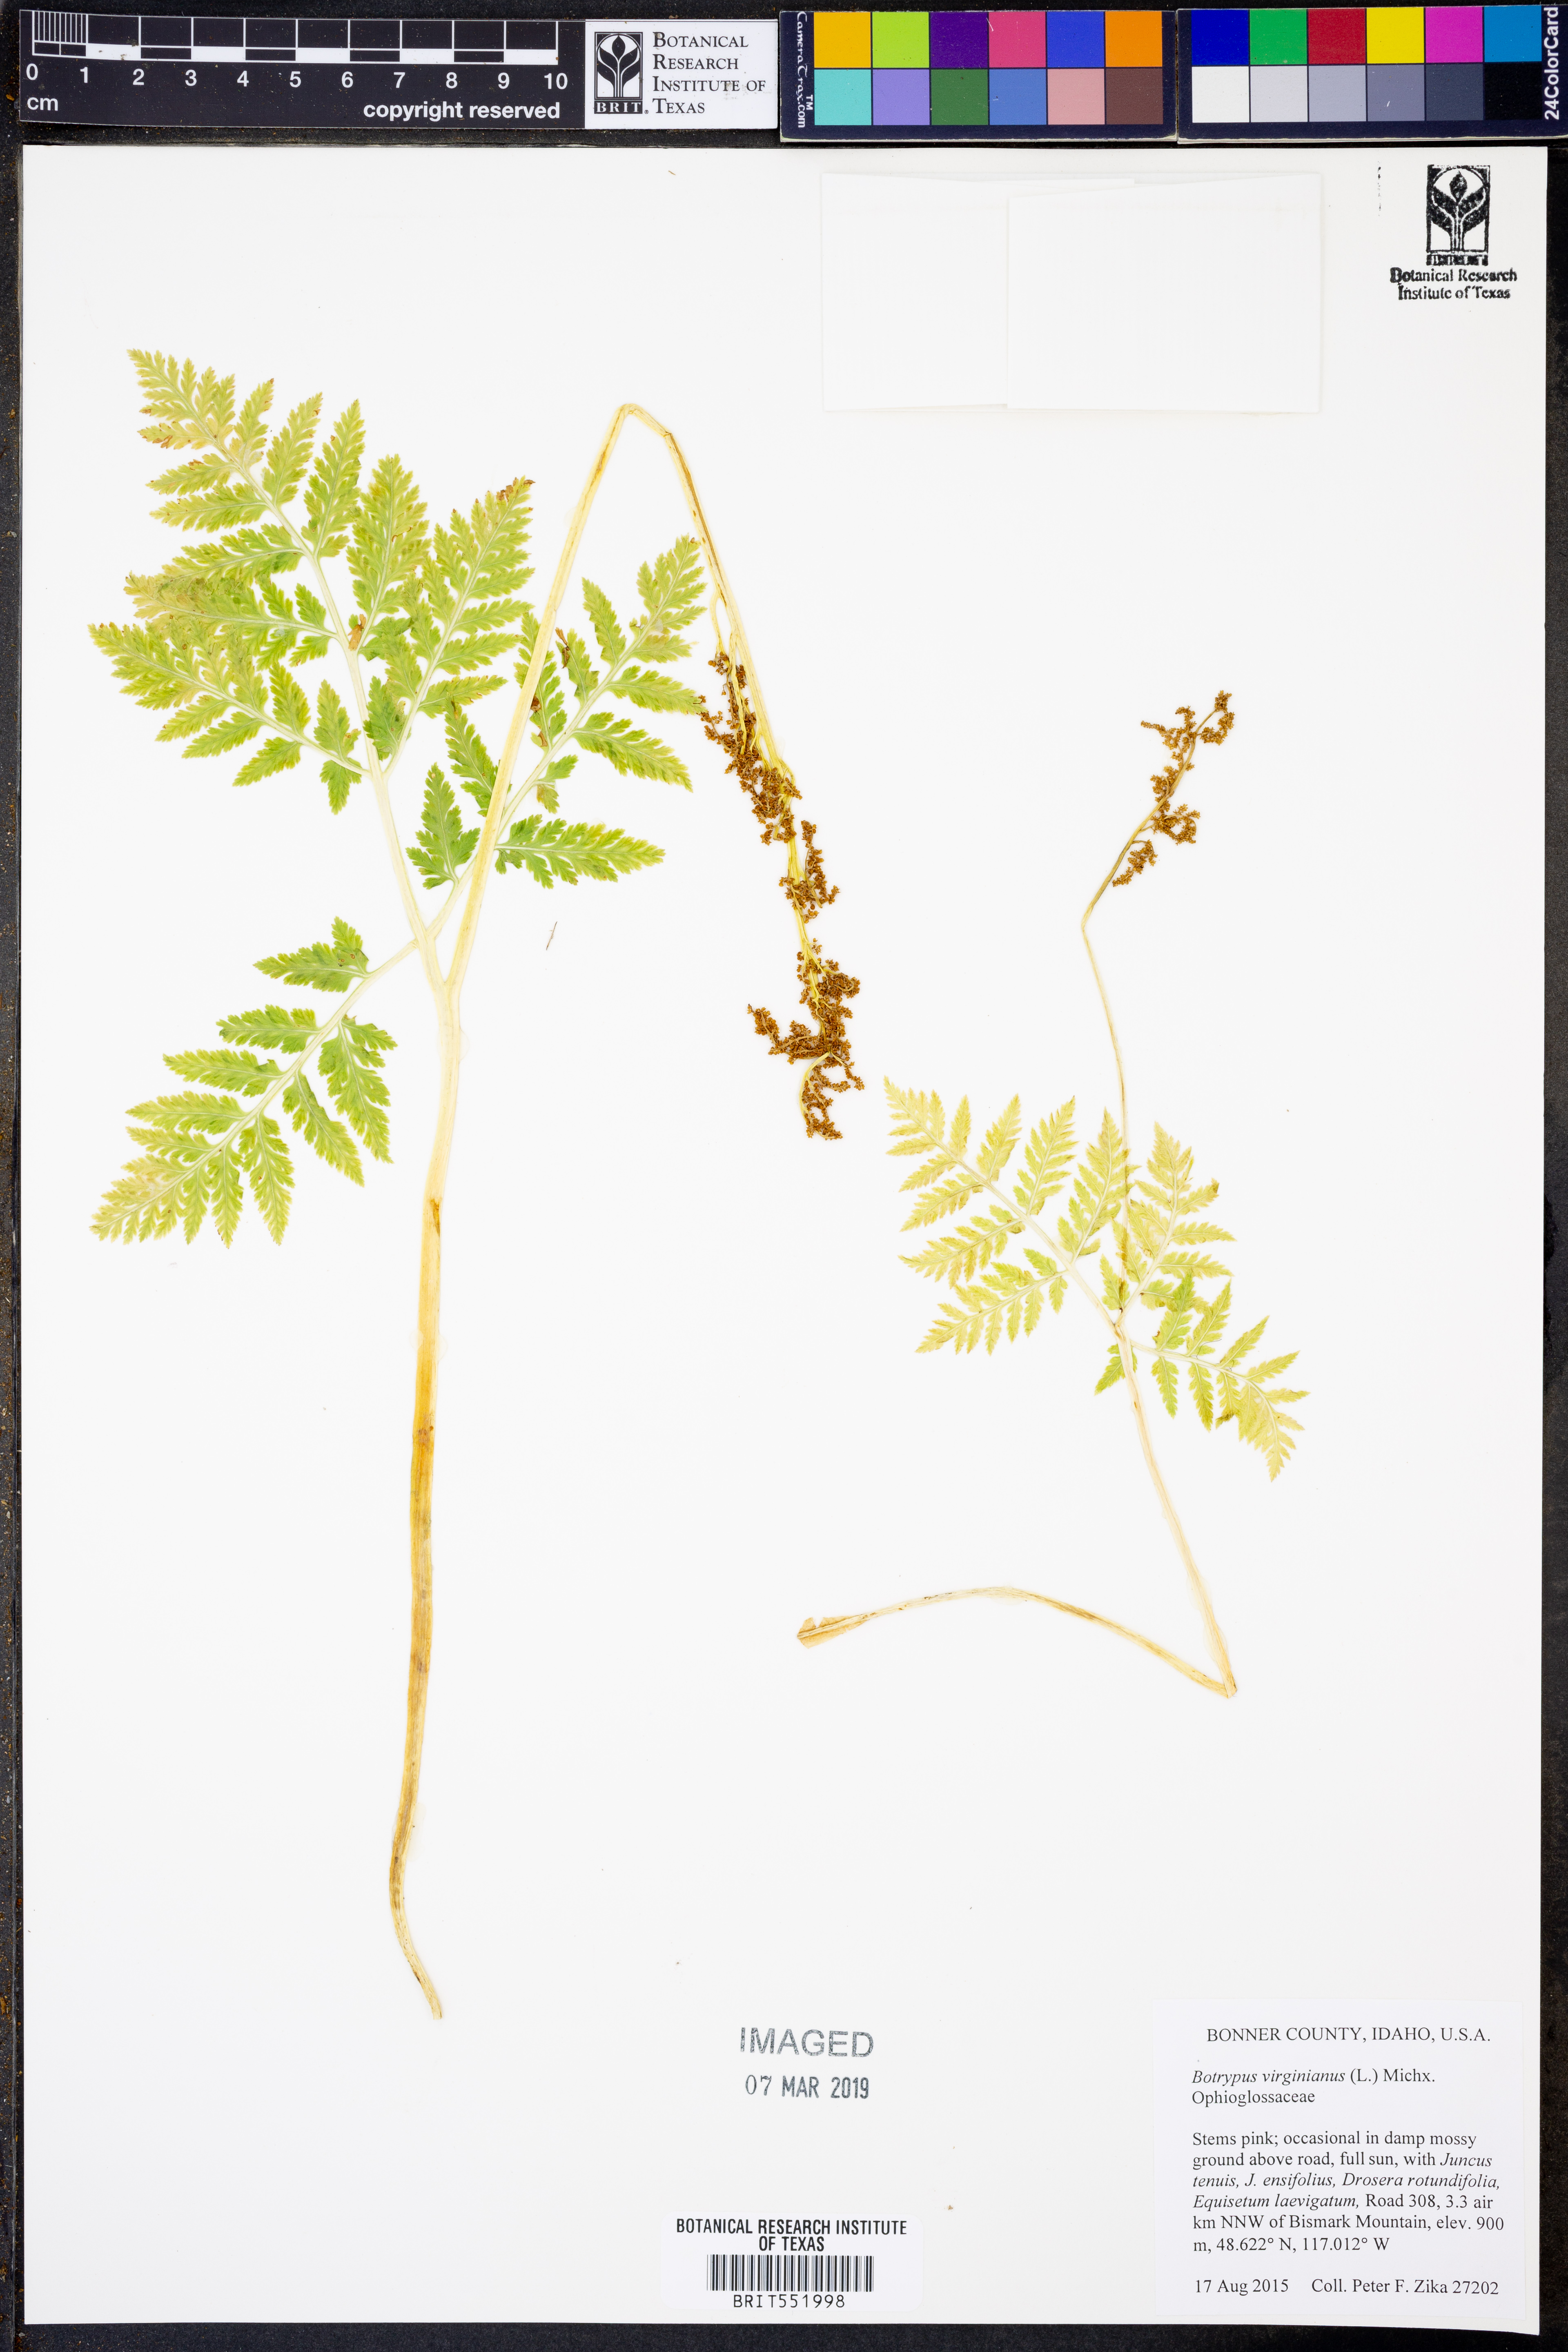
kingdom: Plantae
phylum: Tracheophyta
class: Polypodiopsida
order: Ophioglossales
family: Ophioglossaceae
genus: Botrypus
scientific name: Botrypus virginianus
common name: Common grapefern
